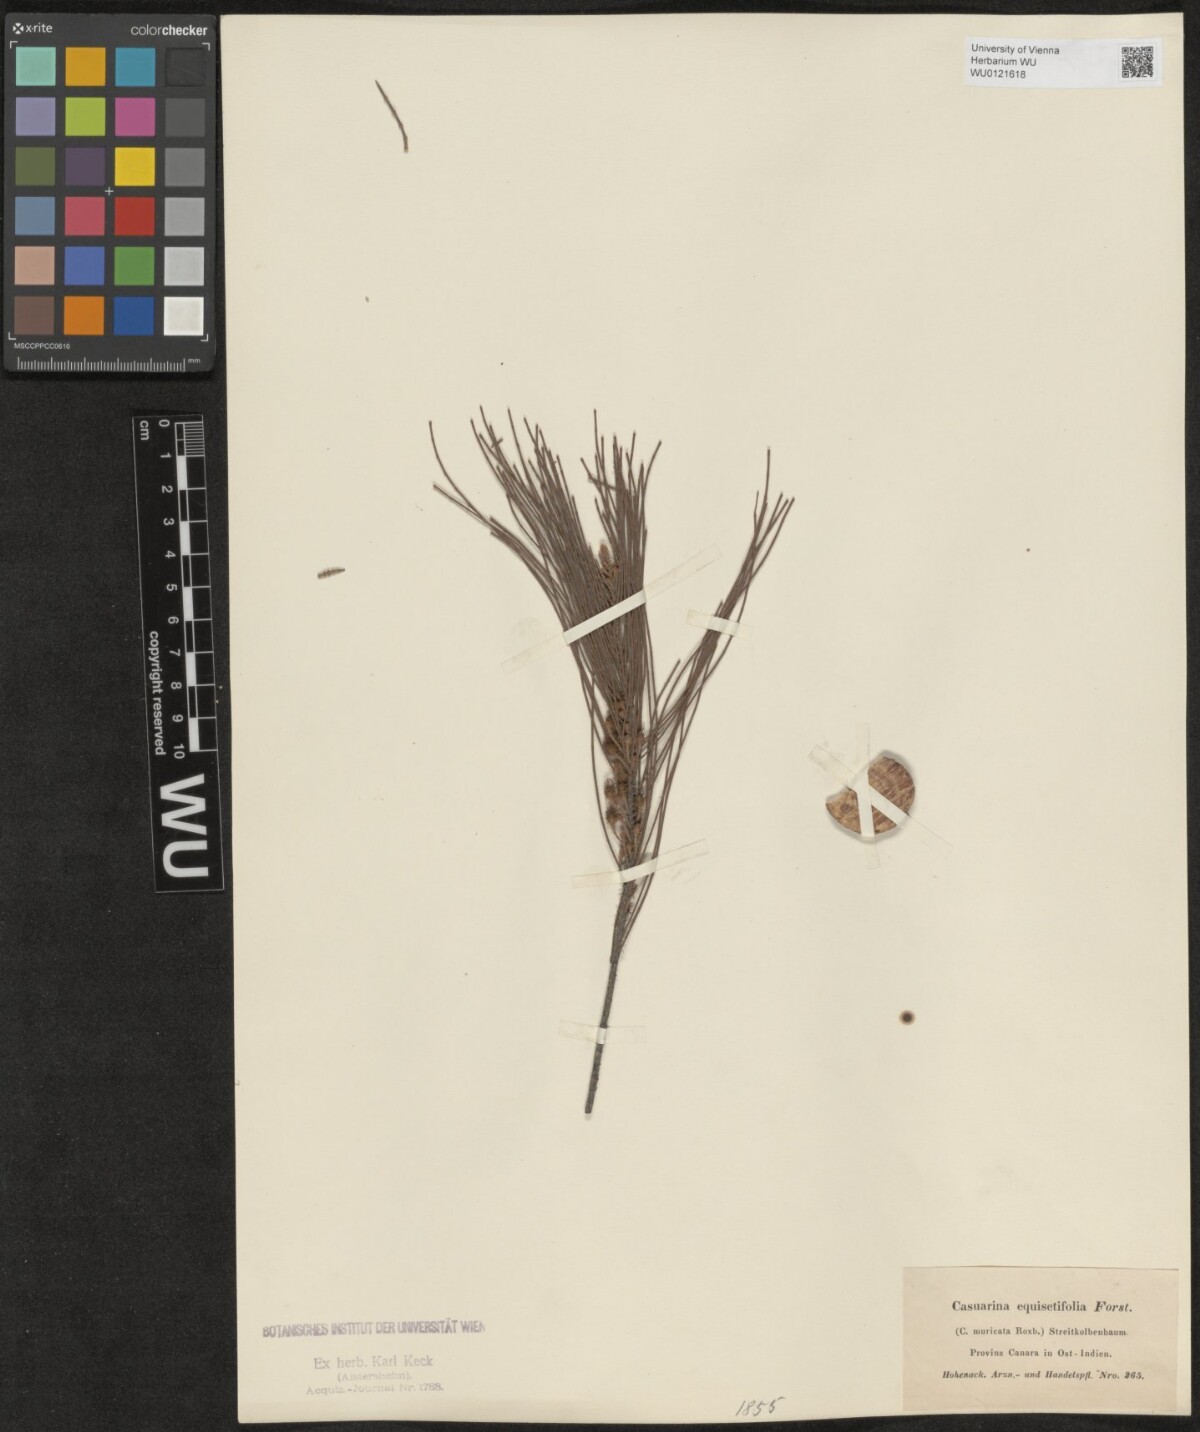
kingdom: Plantae
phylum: Tracheophyta
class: Magnoliopsida
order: Fagales
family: Casuarinaceae
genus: Casuarina
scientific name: Casuarina equisetifolia
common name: Beach sheoak
